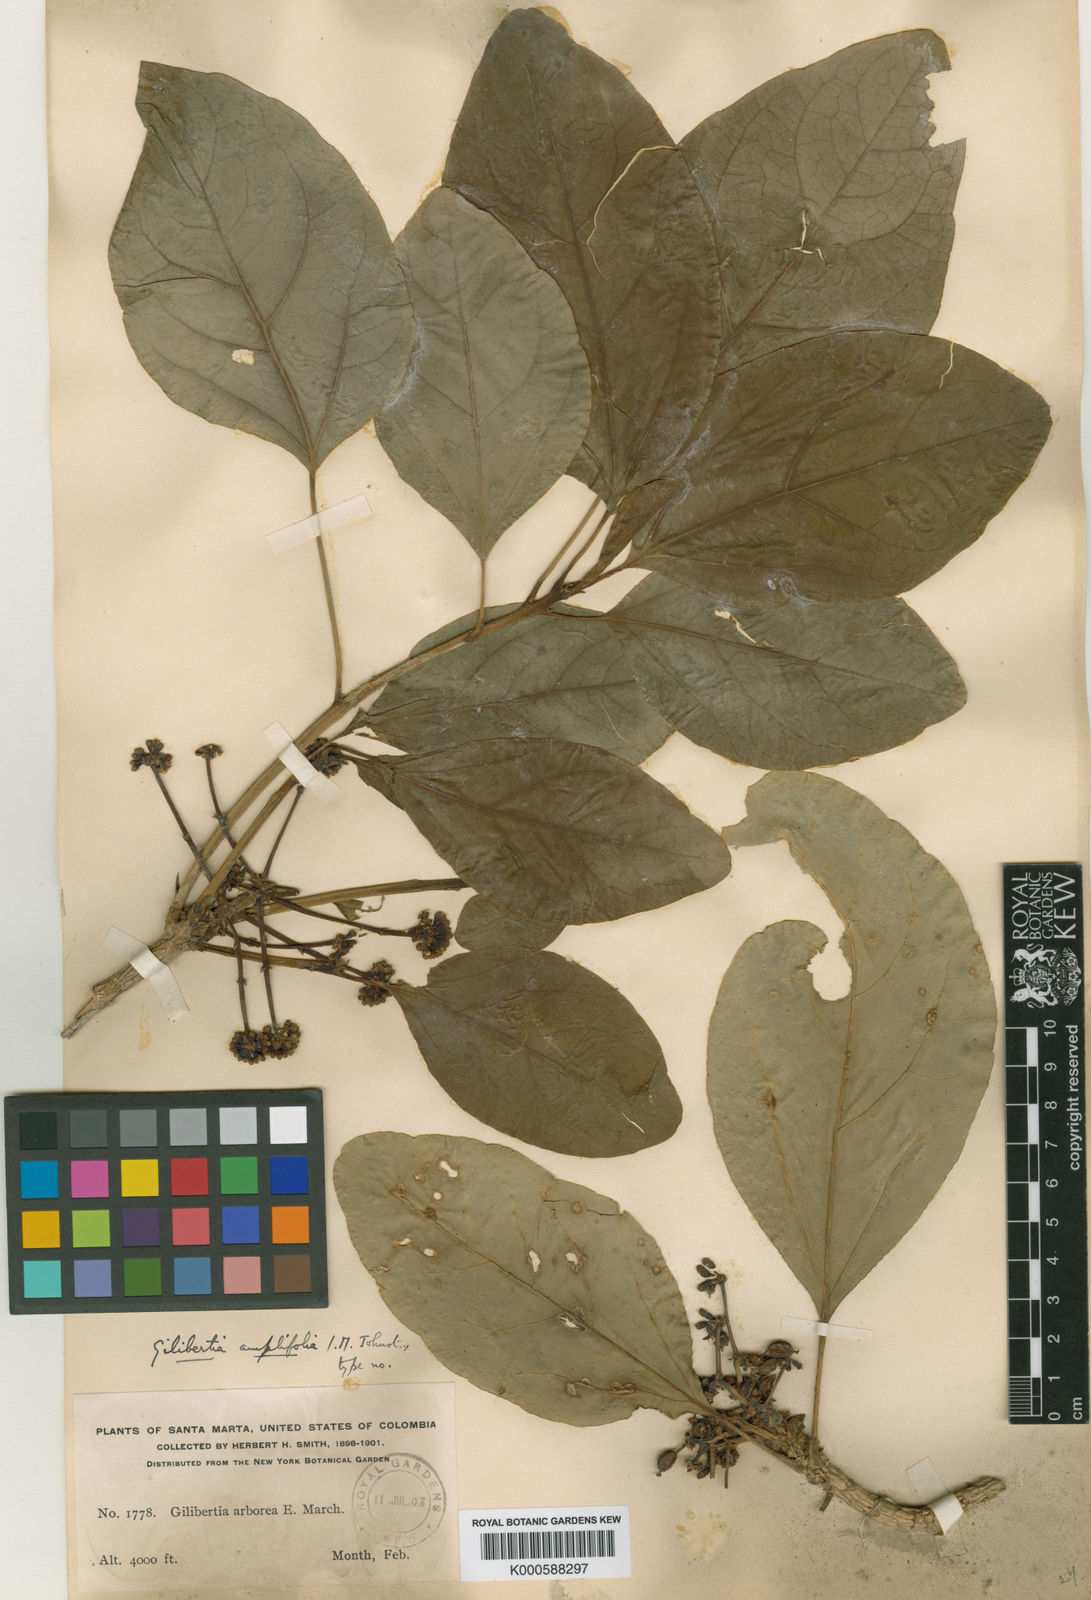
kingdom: Plantae
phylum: Tracheophyta
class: Magnoliopsida
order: Apiales
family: Araliaceae
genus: Dendropanax
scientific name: Dendropanax amplifolius
